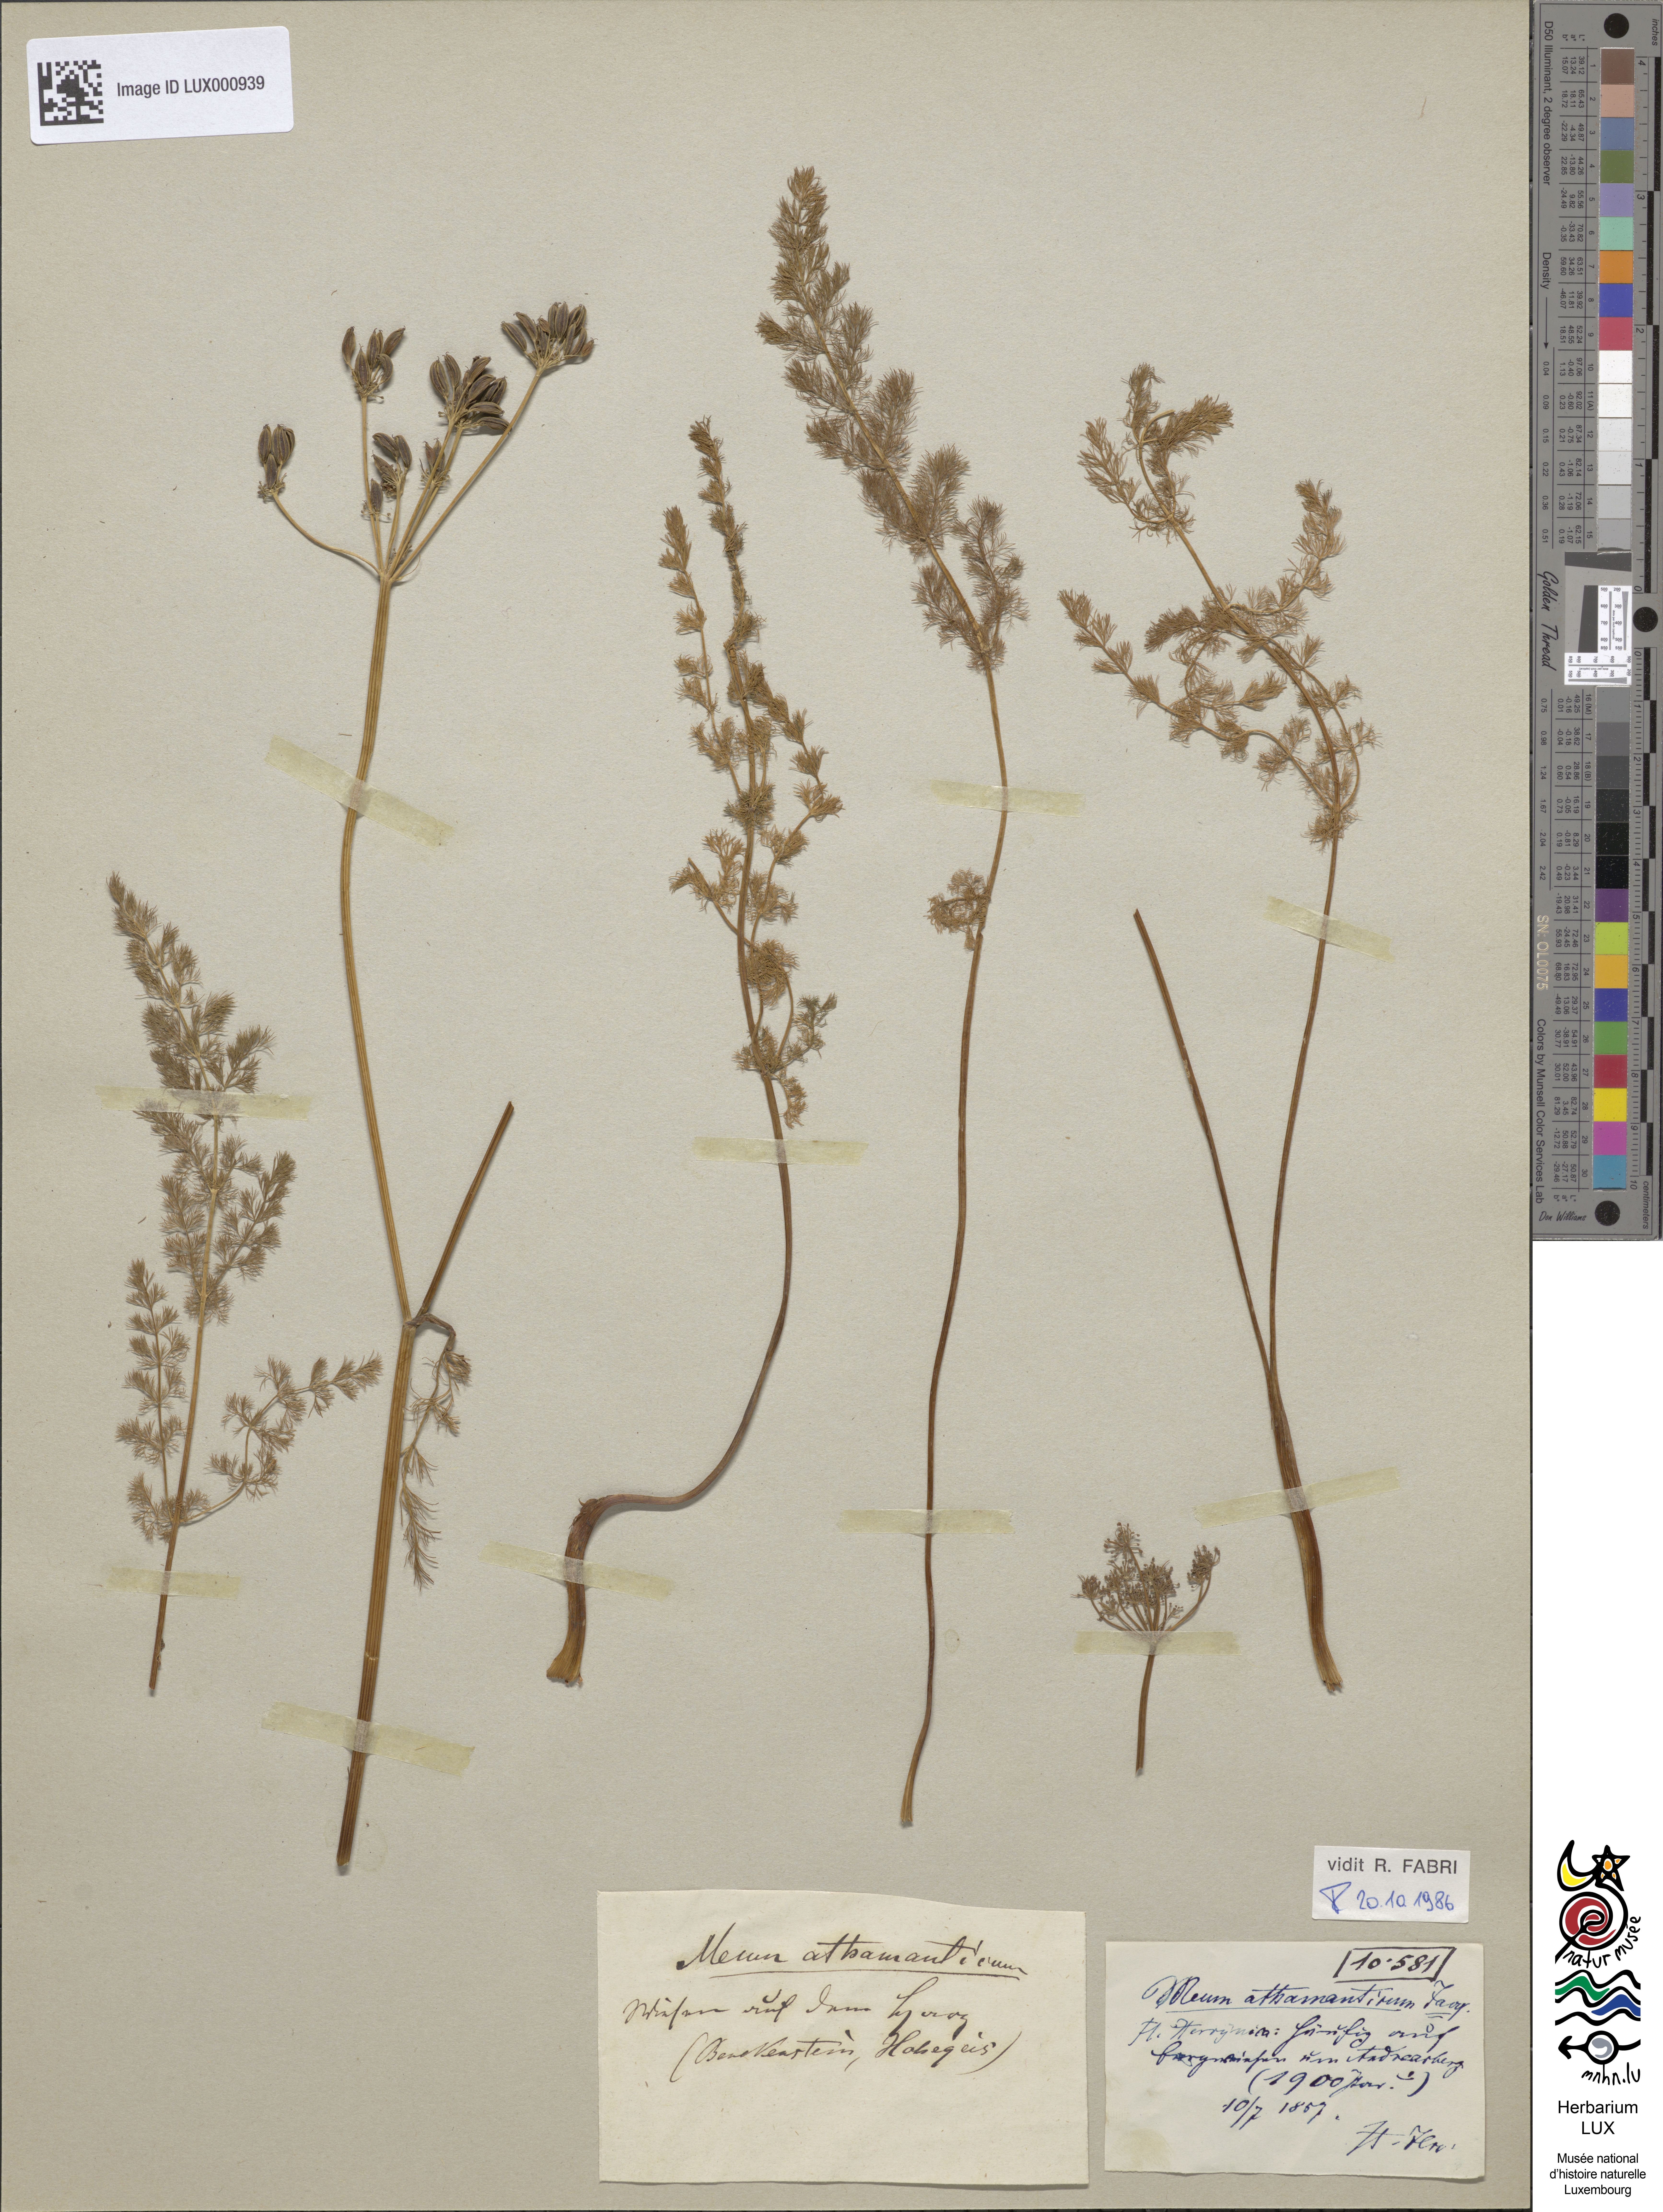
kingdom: Plantae
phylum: Tracheophyta
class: Magnoliopsida
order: Apiales
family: Apiaceae
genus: Meum
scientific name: Meum athamanticum
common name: Spignel
